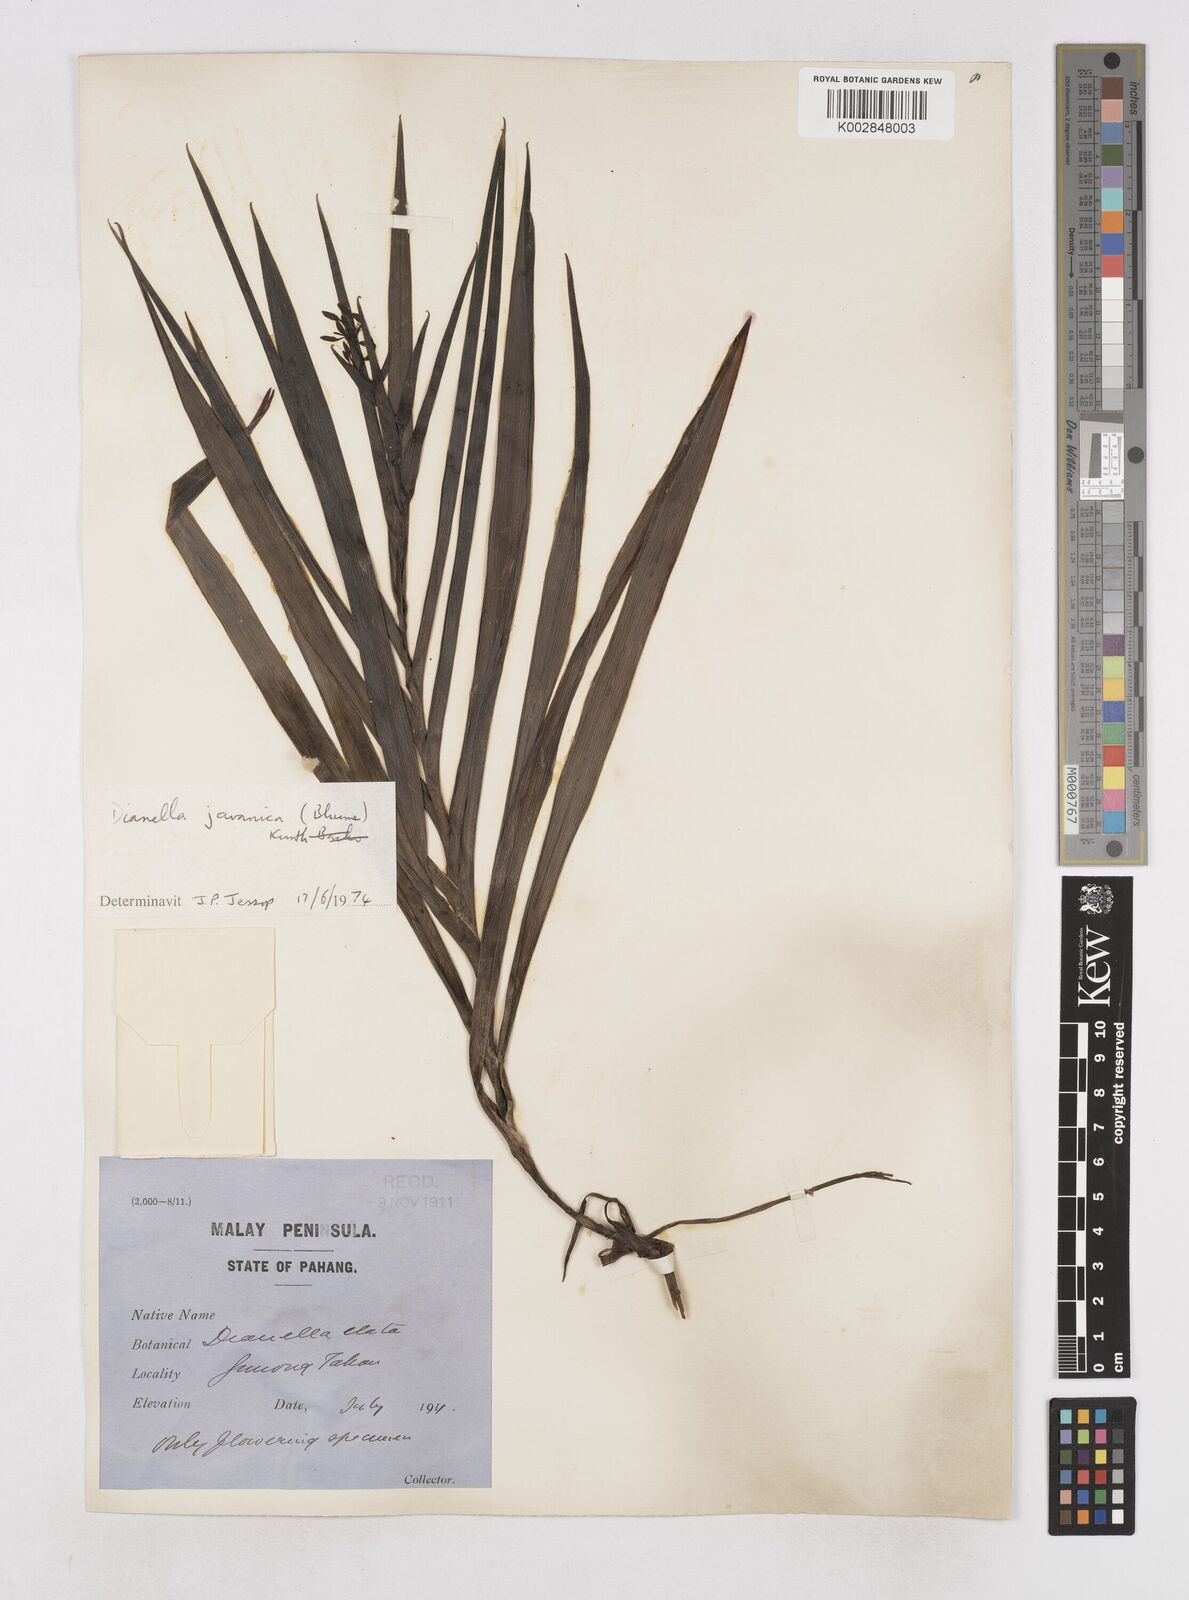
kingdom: Plantae
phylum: Tracheophyta
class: Liliopsida
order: Asparagales
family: Asphodelaceae
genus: Dianella
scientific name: Dianella ensifolia
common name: New zealand lilyplant
